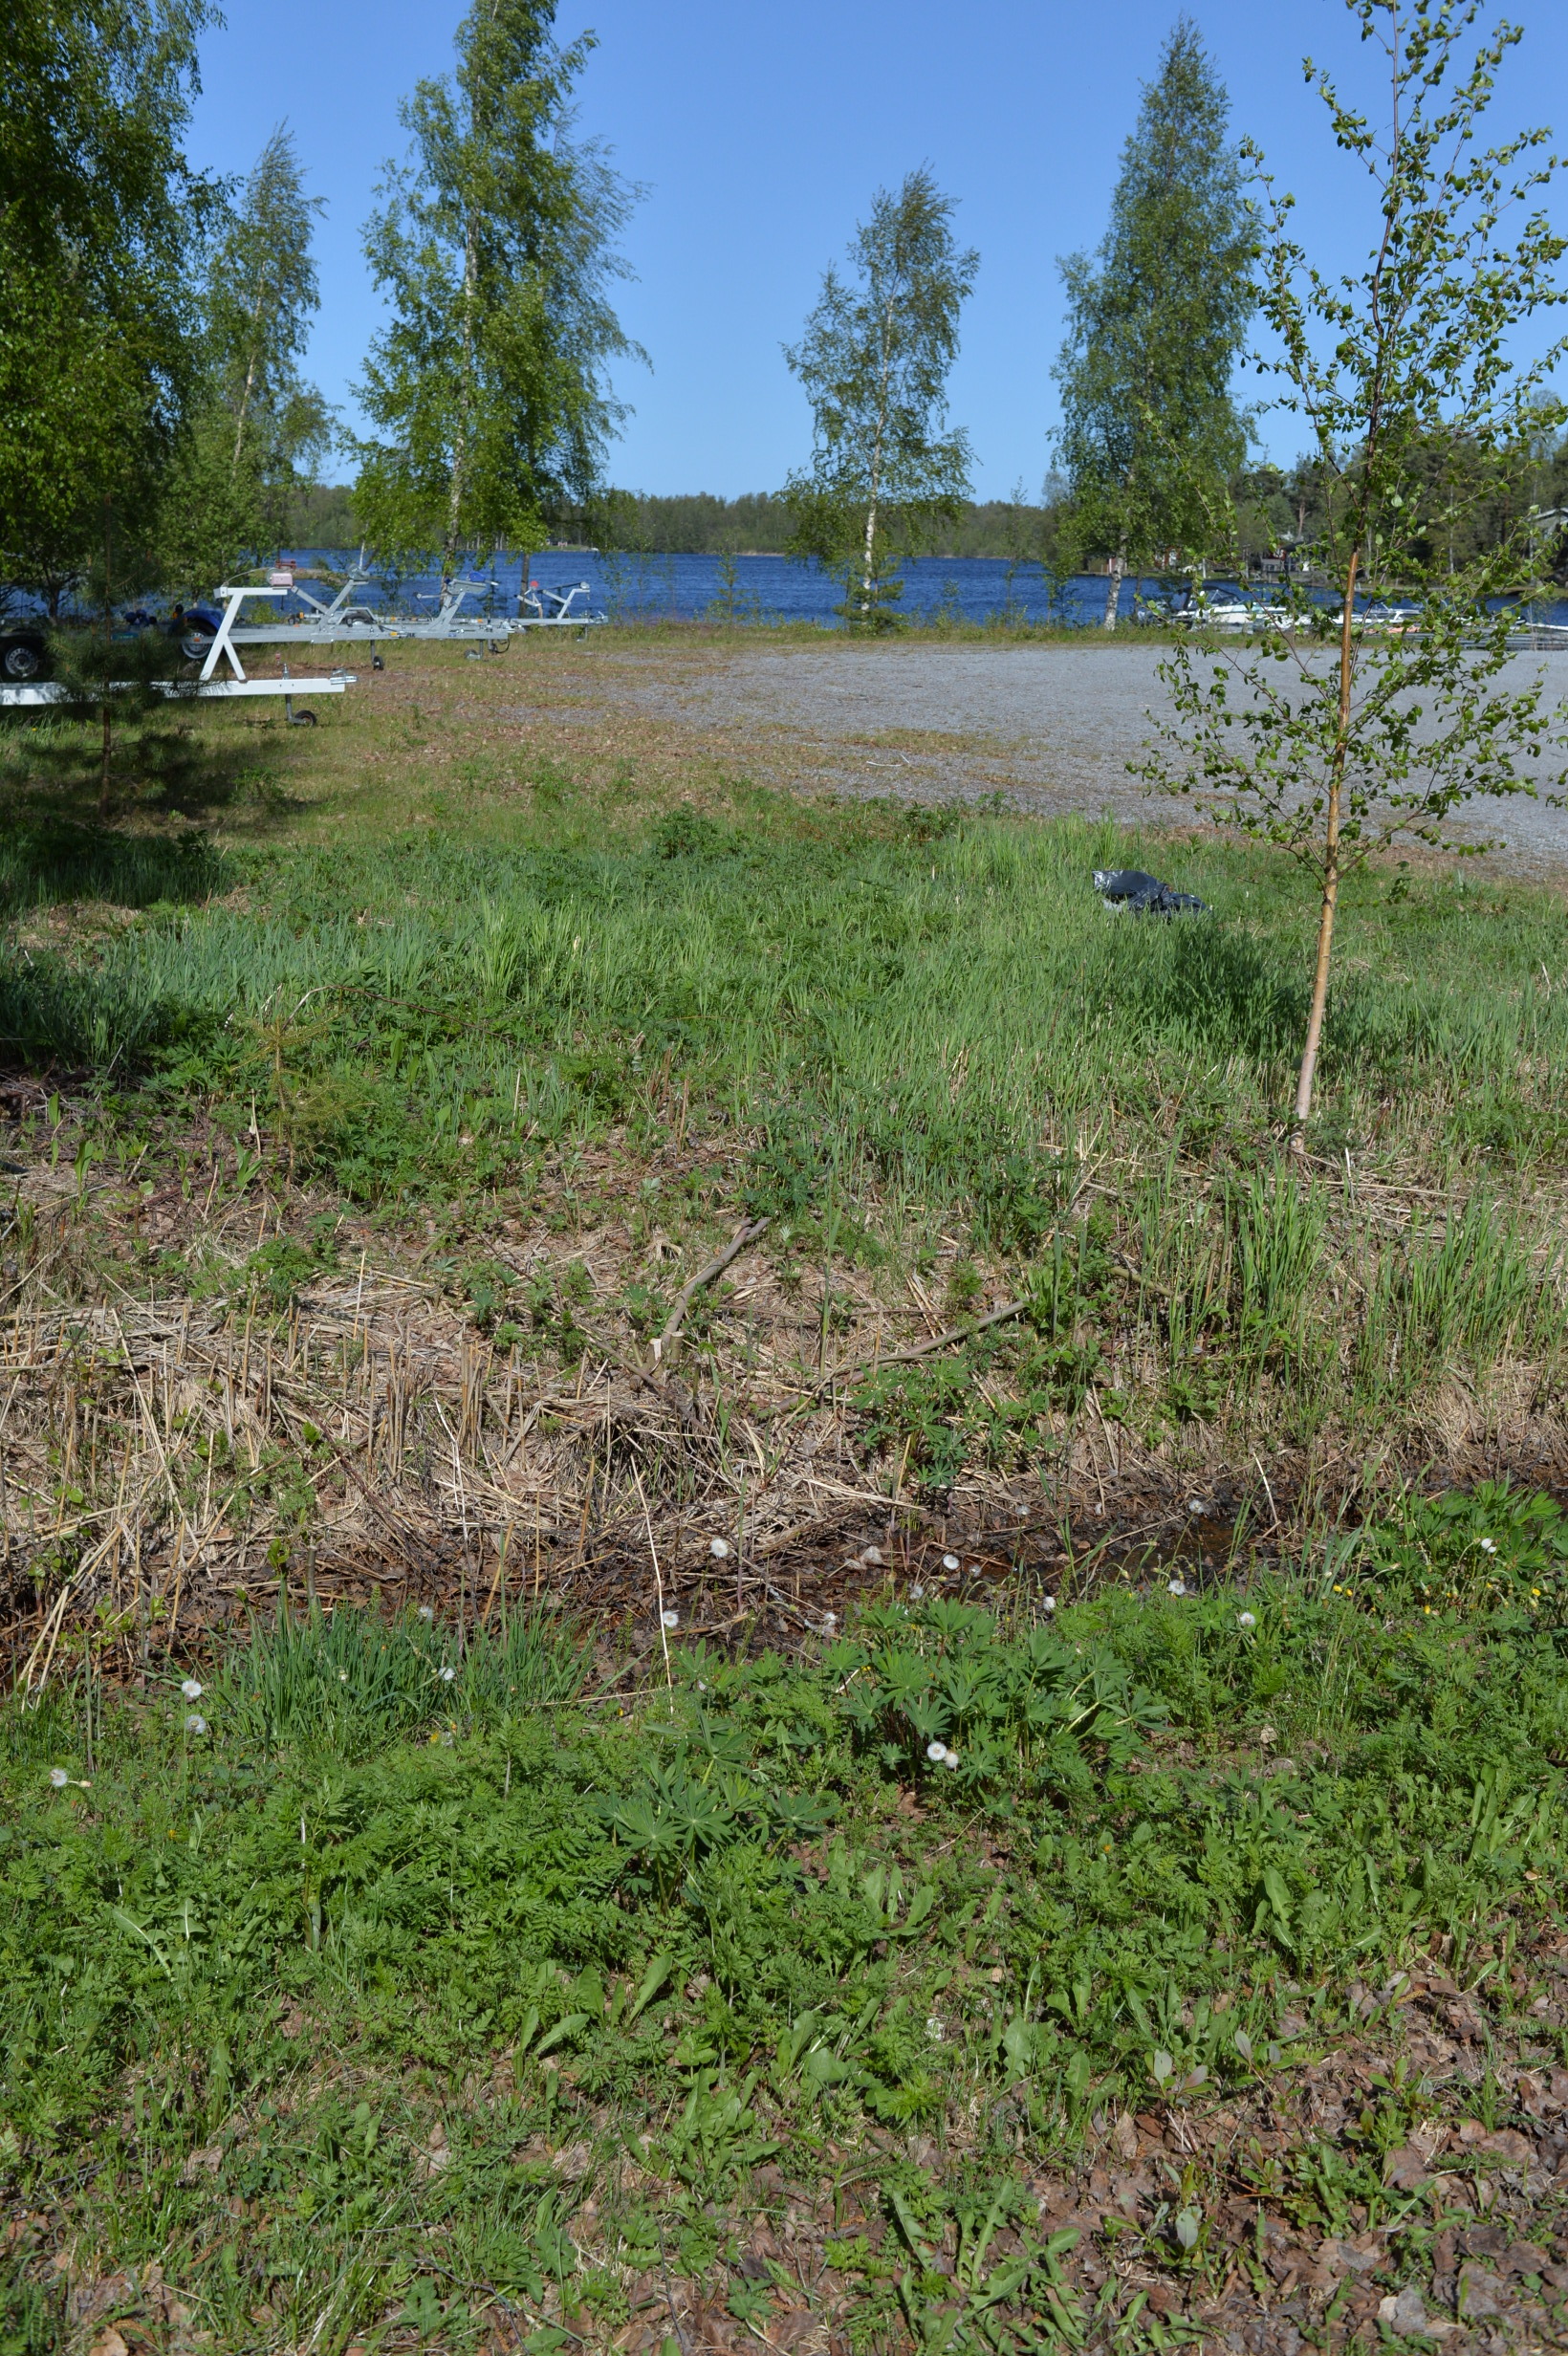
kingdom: Plantae
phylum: Tracheophyta
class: Magnoliopsida
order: Fabales
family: Fabaceae
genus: Lupinus
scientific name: Lupinus polyphyllus
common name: Garden lupin
